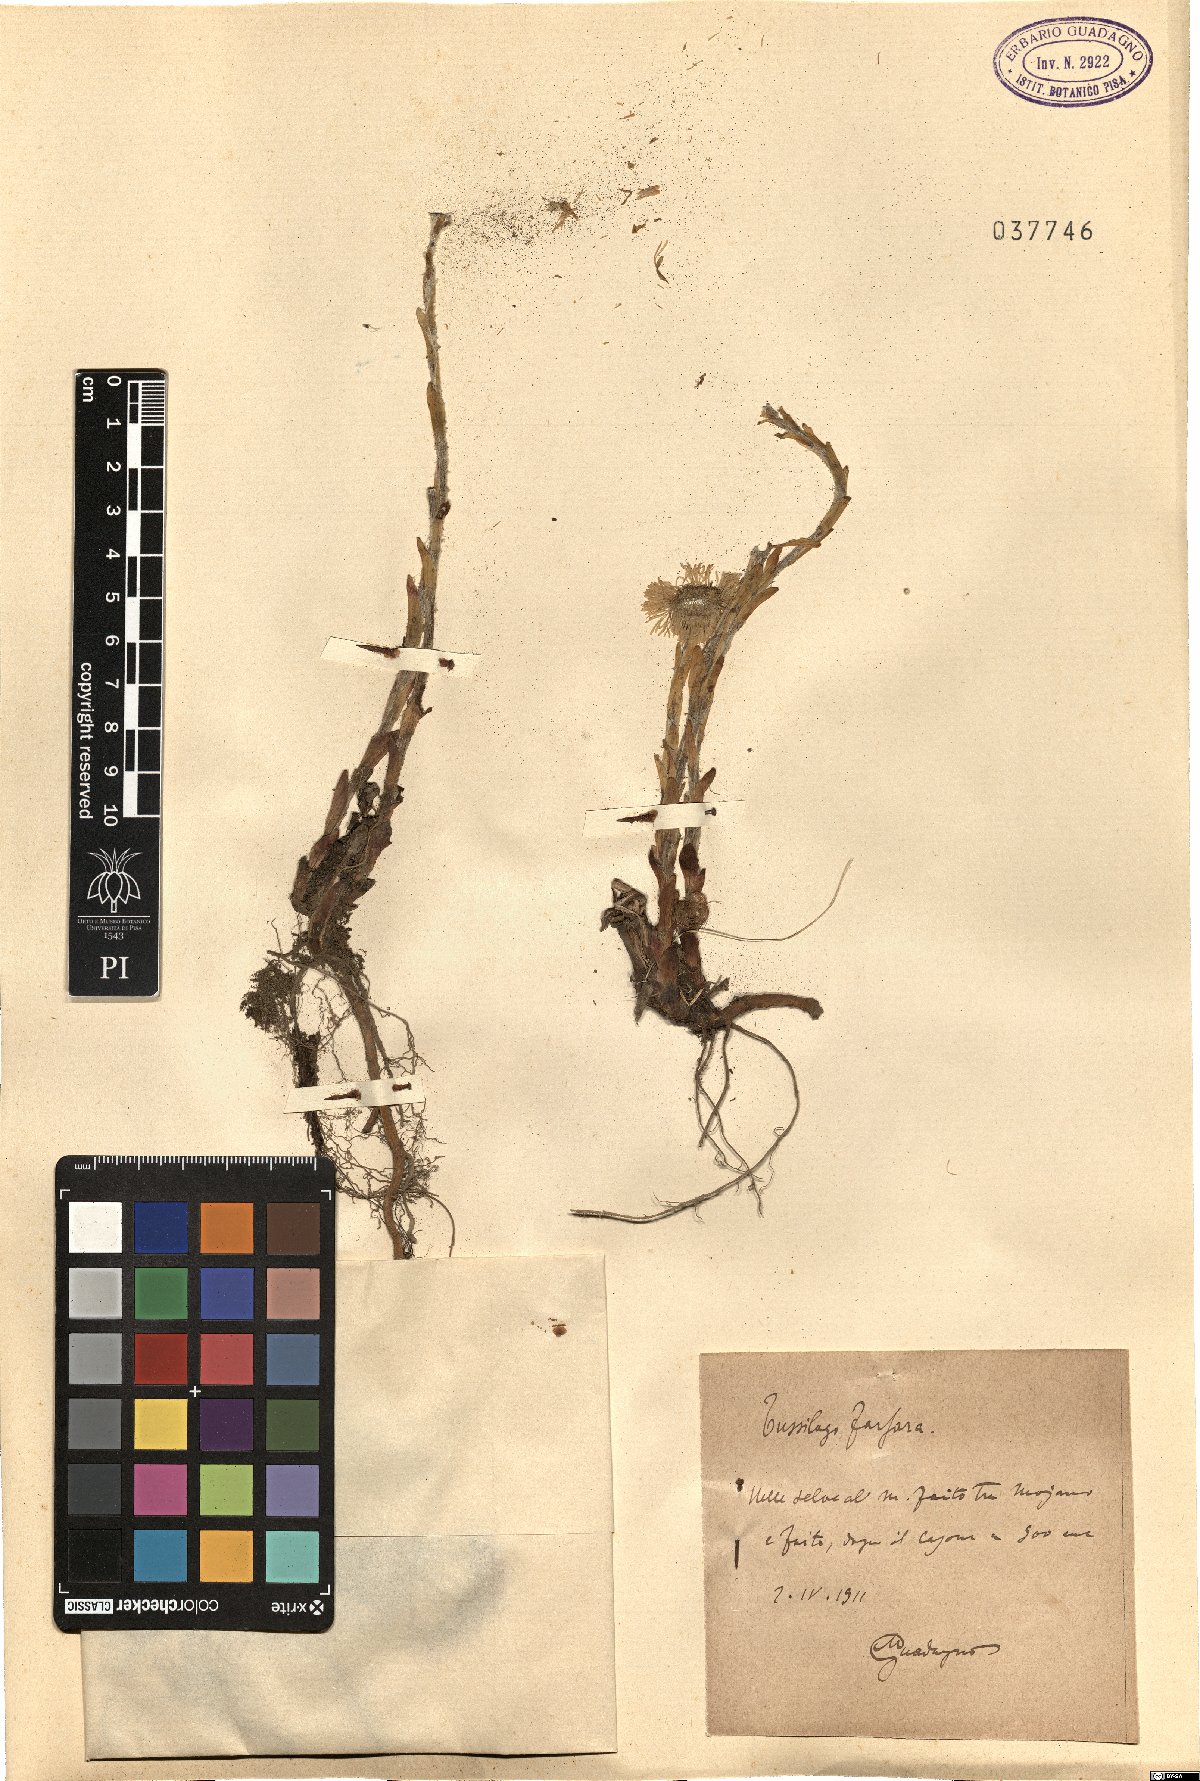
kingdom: Plantae
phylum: Tracheophyta
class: Magnoliopsida
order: Ranunculales
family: Ranunculaceae
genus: Anemone
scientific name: Anemone apennina
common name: Blue anemone
